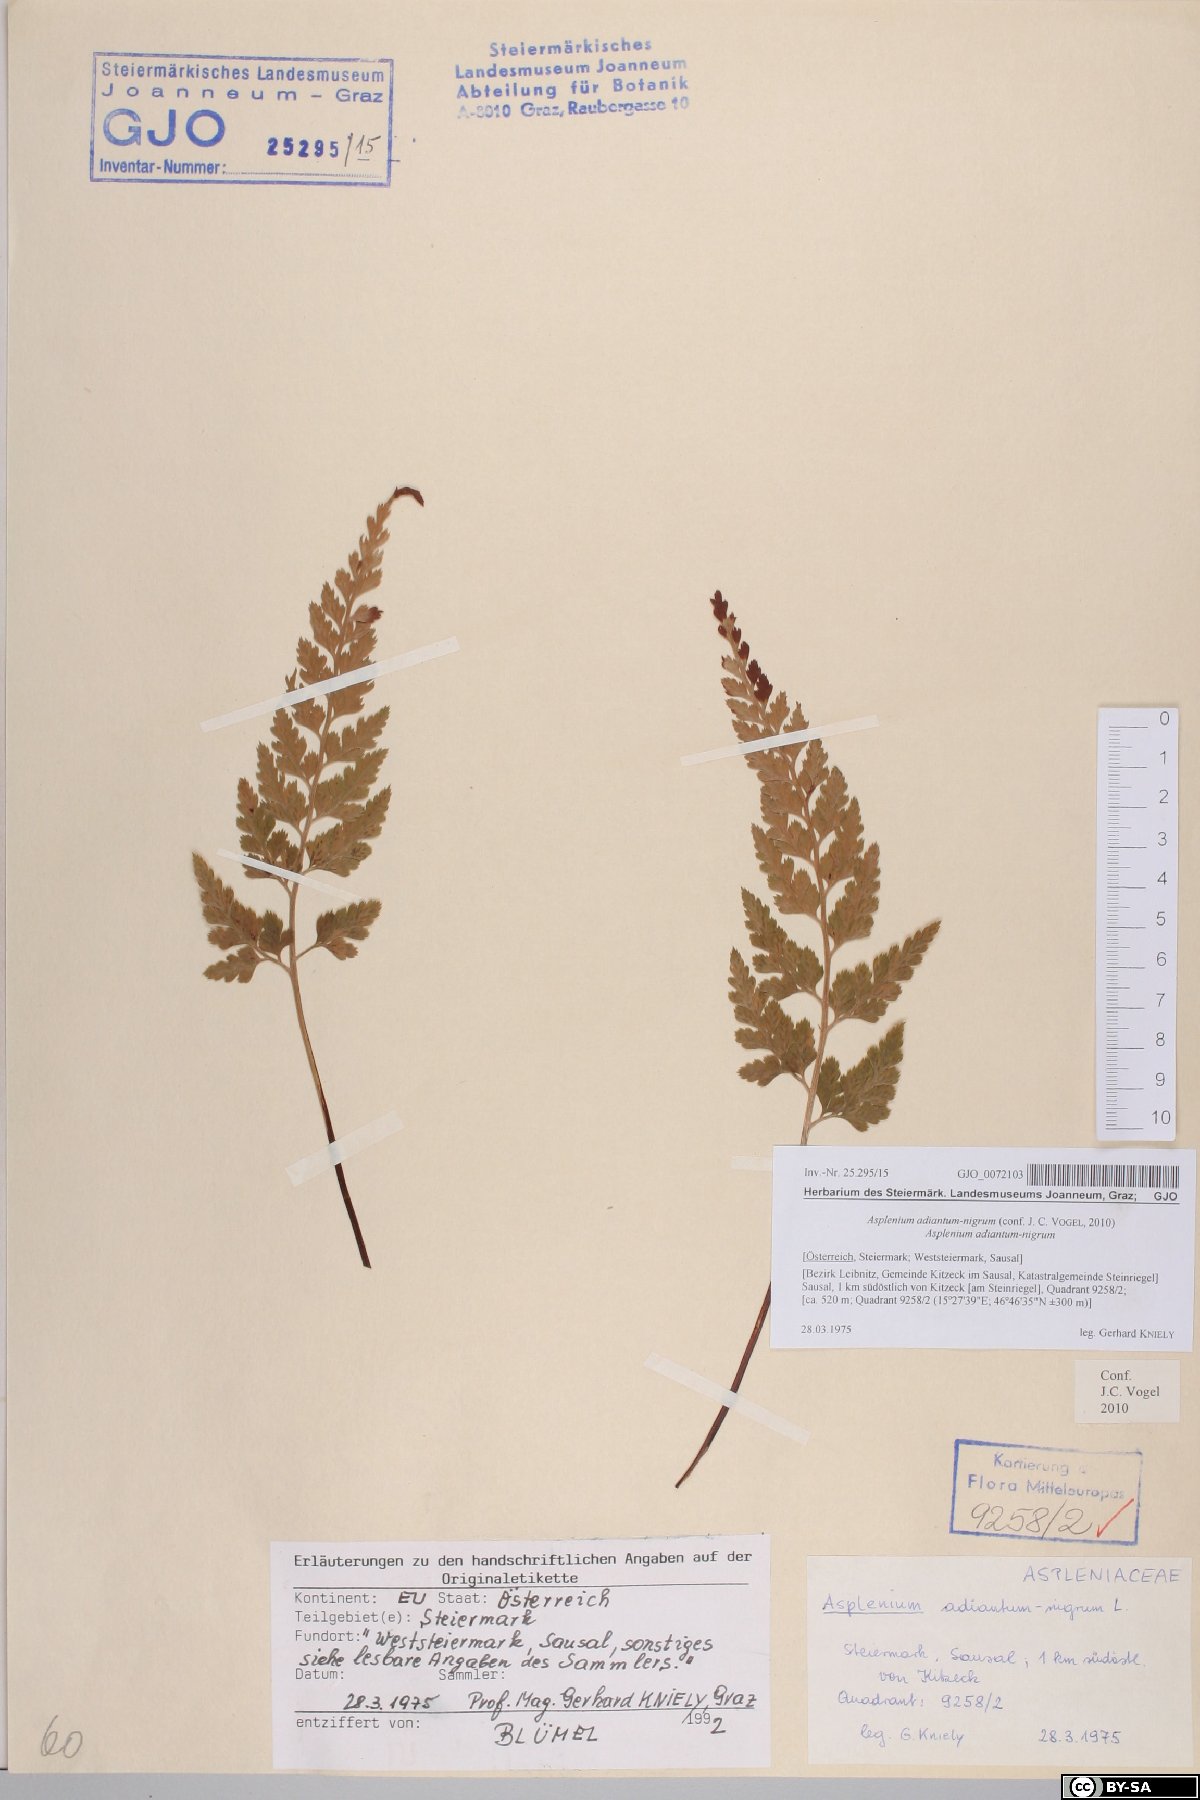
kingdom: Plantae
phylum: Tracheophyta
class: Polypodiopsida
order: Polypodiales
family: Aspleniaceae
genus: Asplenium
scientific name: Asplenium adiantum-nigrum
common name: Black spleenwort
